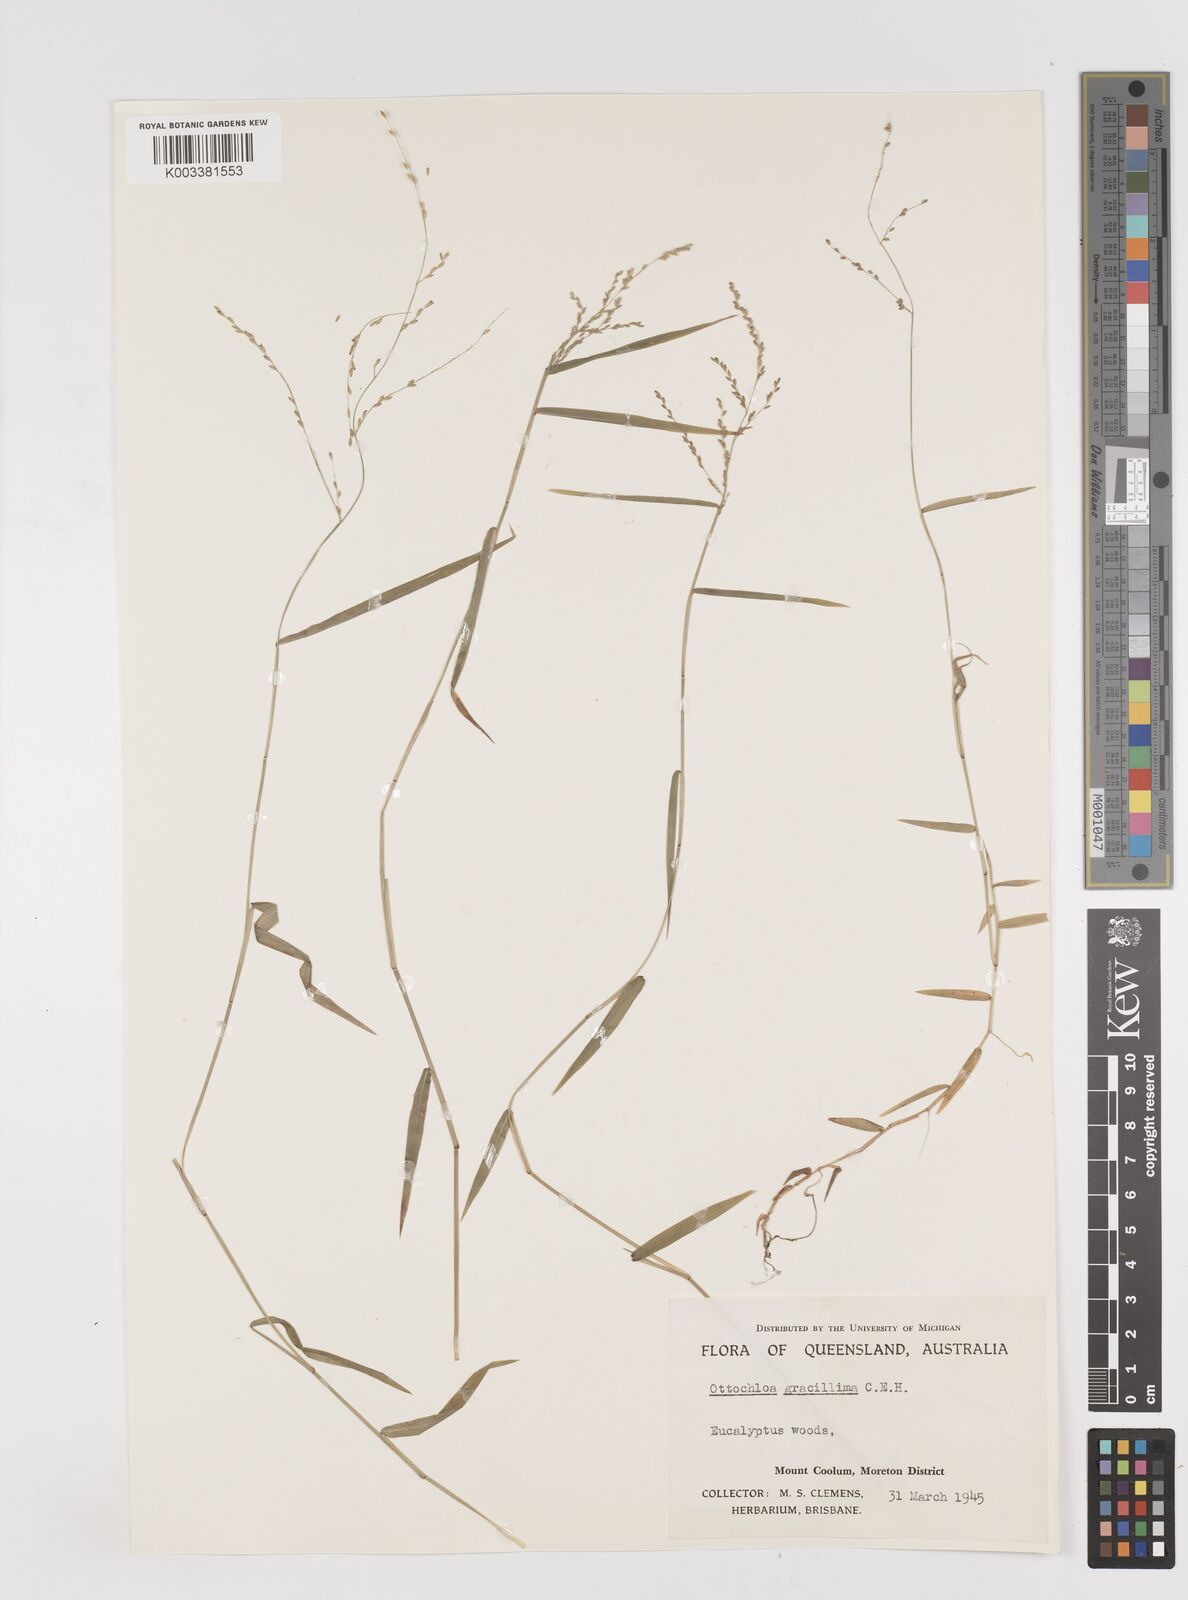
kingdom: Plantae
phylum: Tracheophyta
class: Liliopsida
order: Poales
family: Poaceae
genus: Ottochloa
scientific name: Ottochloa gracillima
